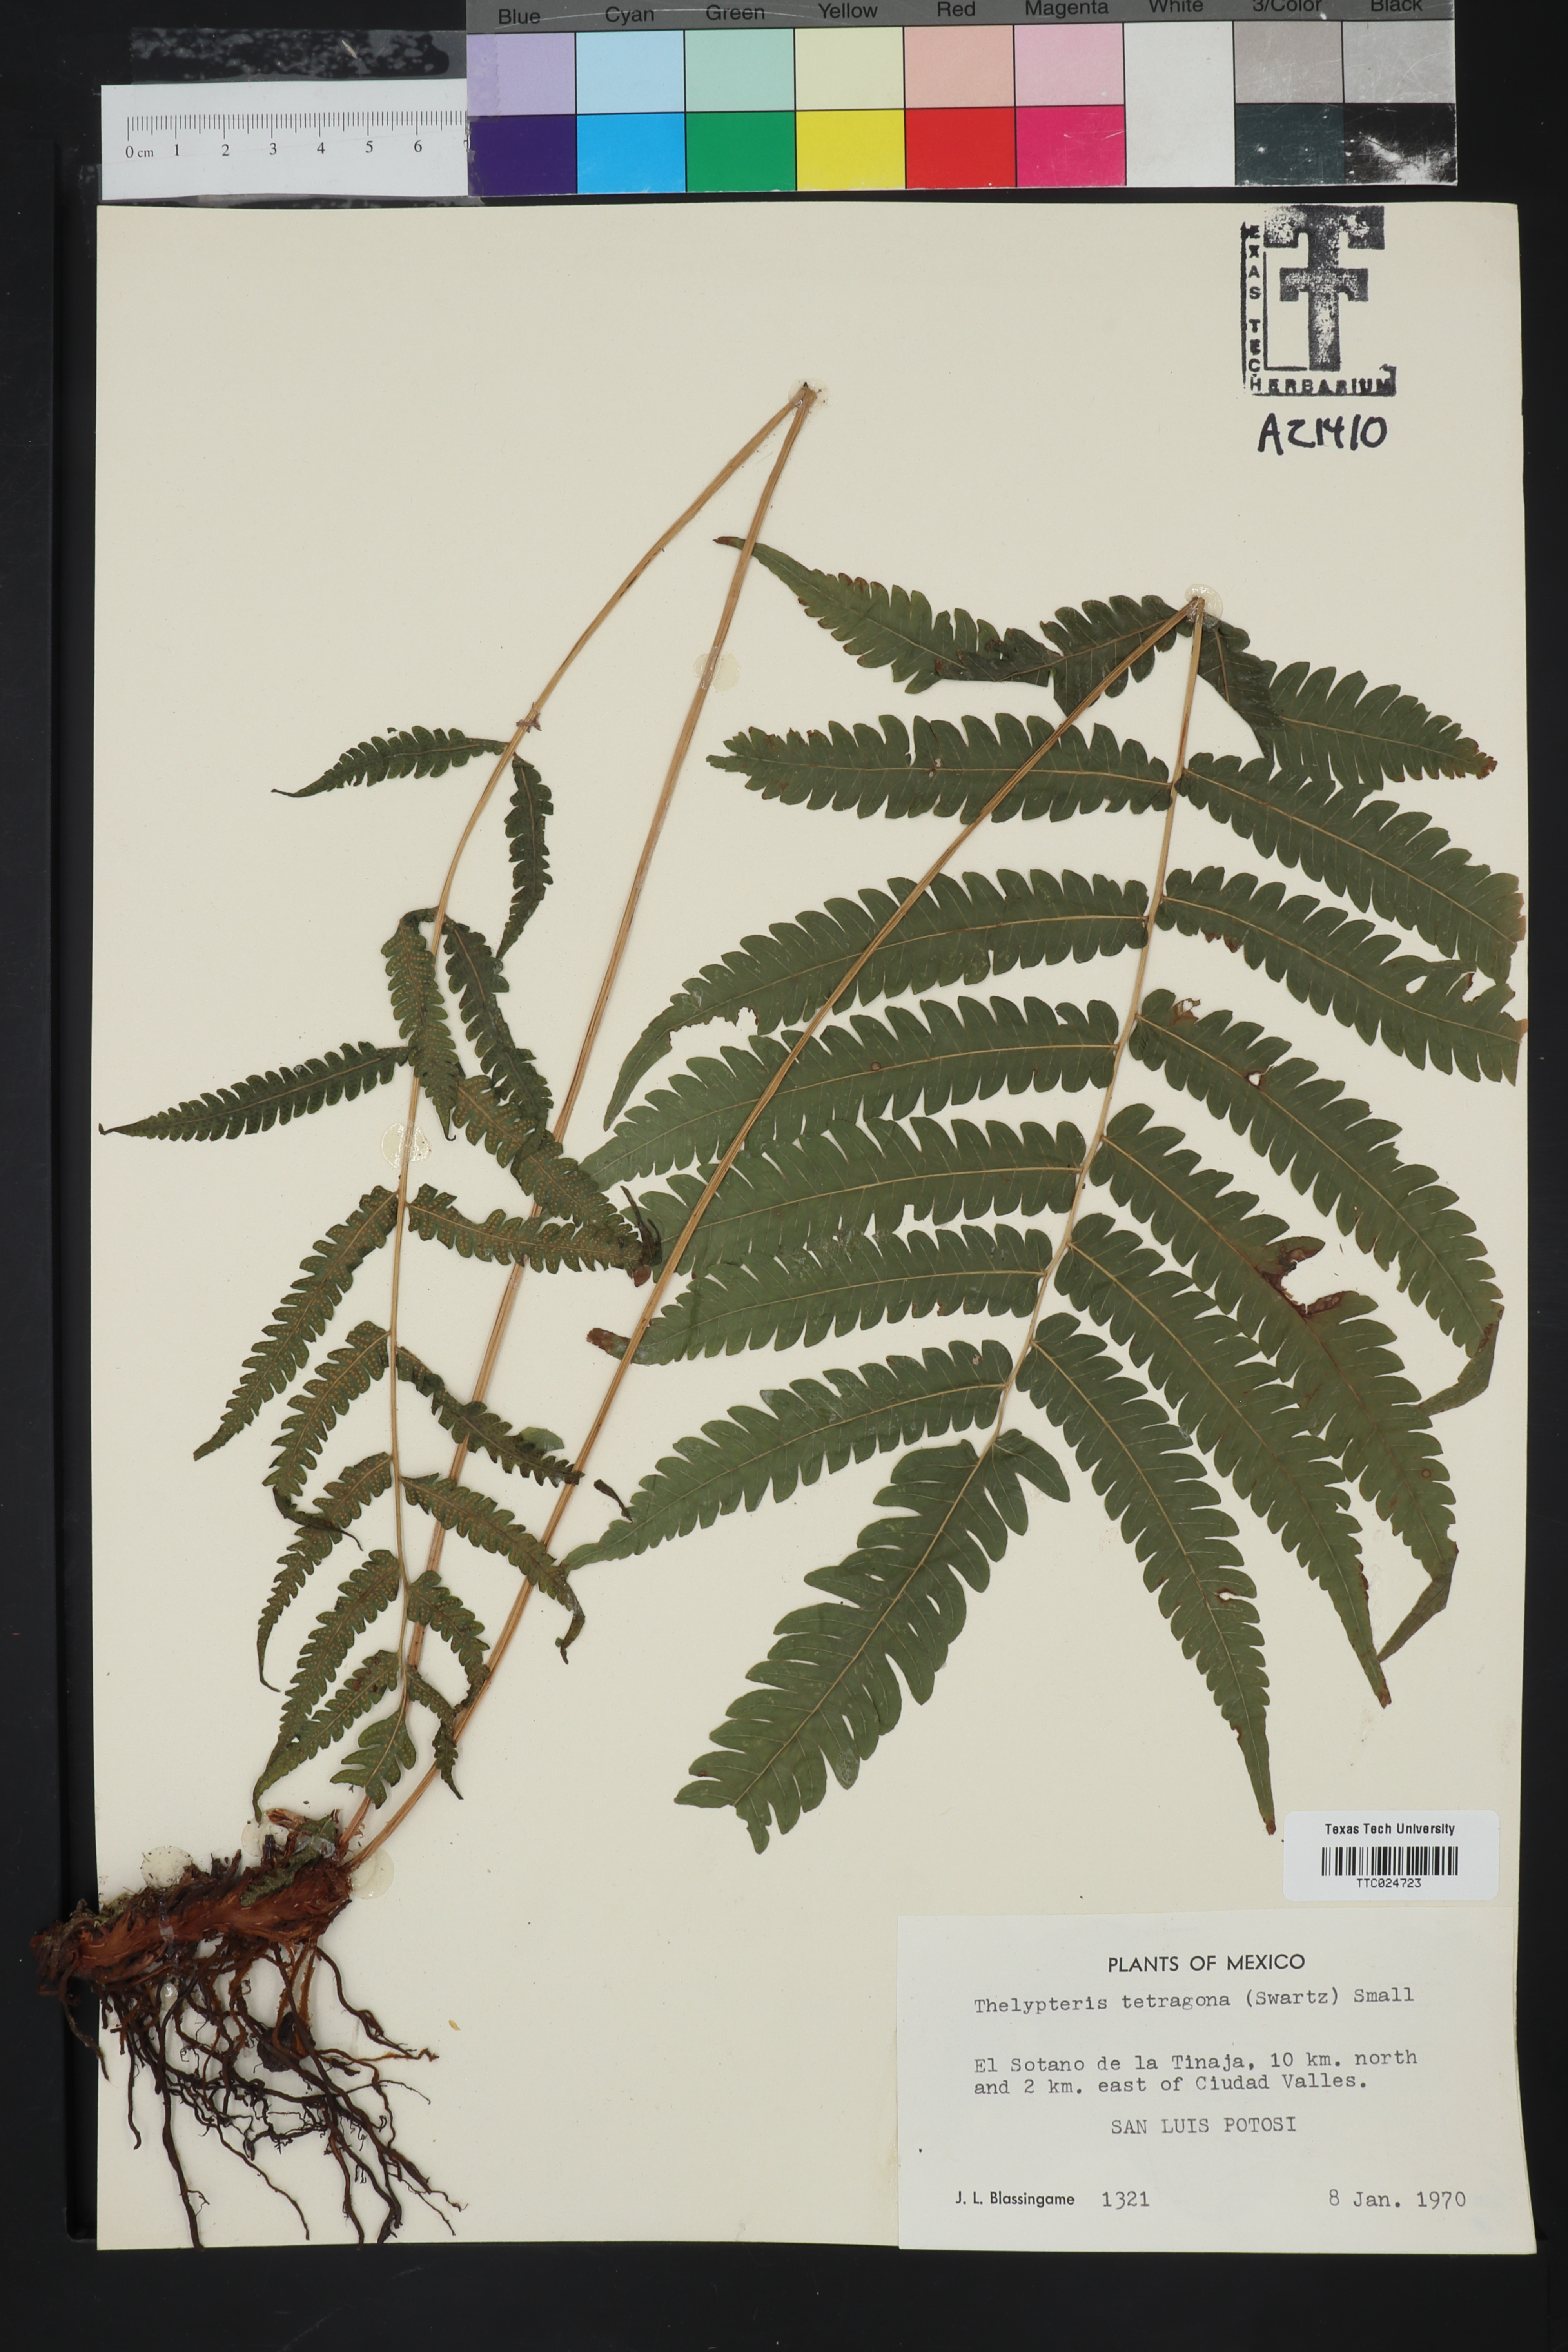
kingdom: Plantae
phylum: Tracheophyta
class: Polypodiopsida
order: Polypodiales
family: Thelypteridaceae
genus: Goniopteris
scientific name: Goniopteris tetragona
